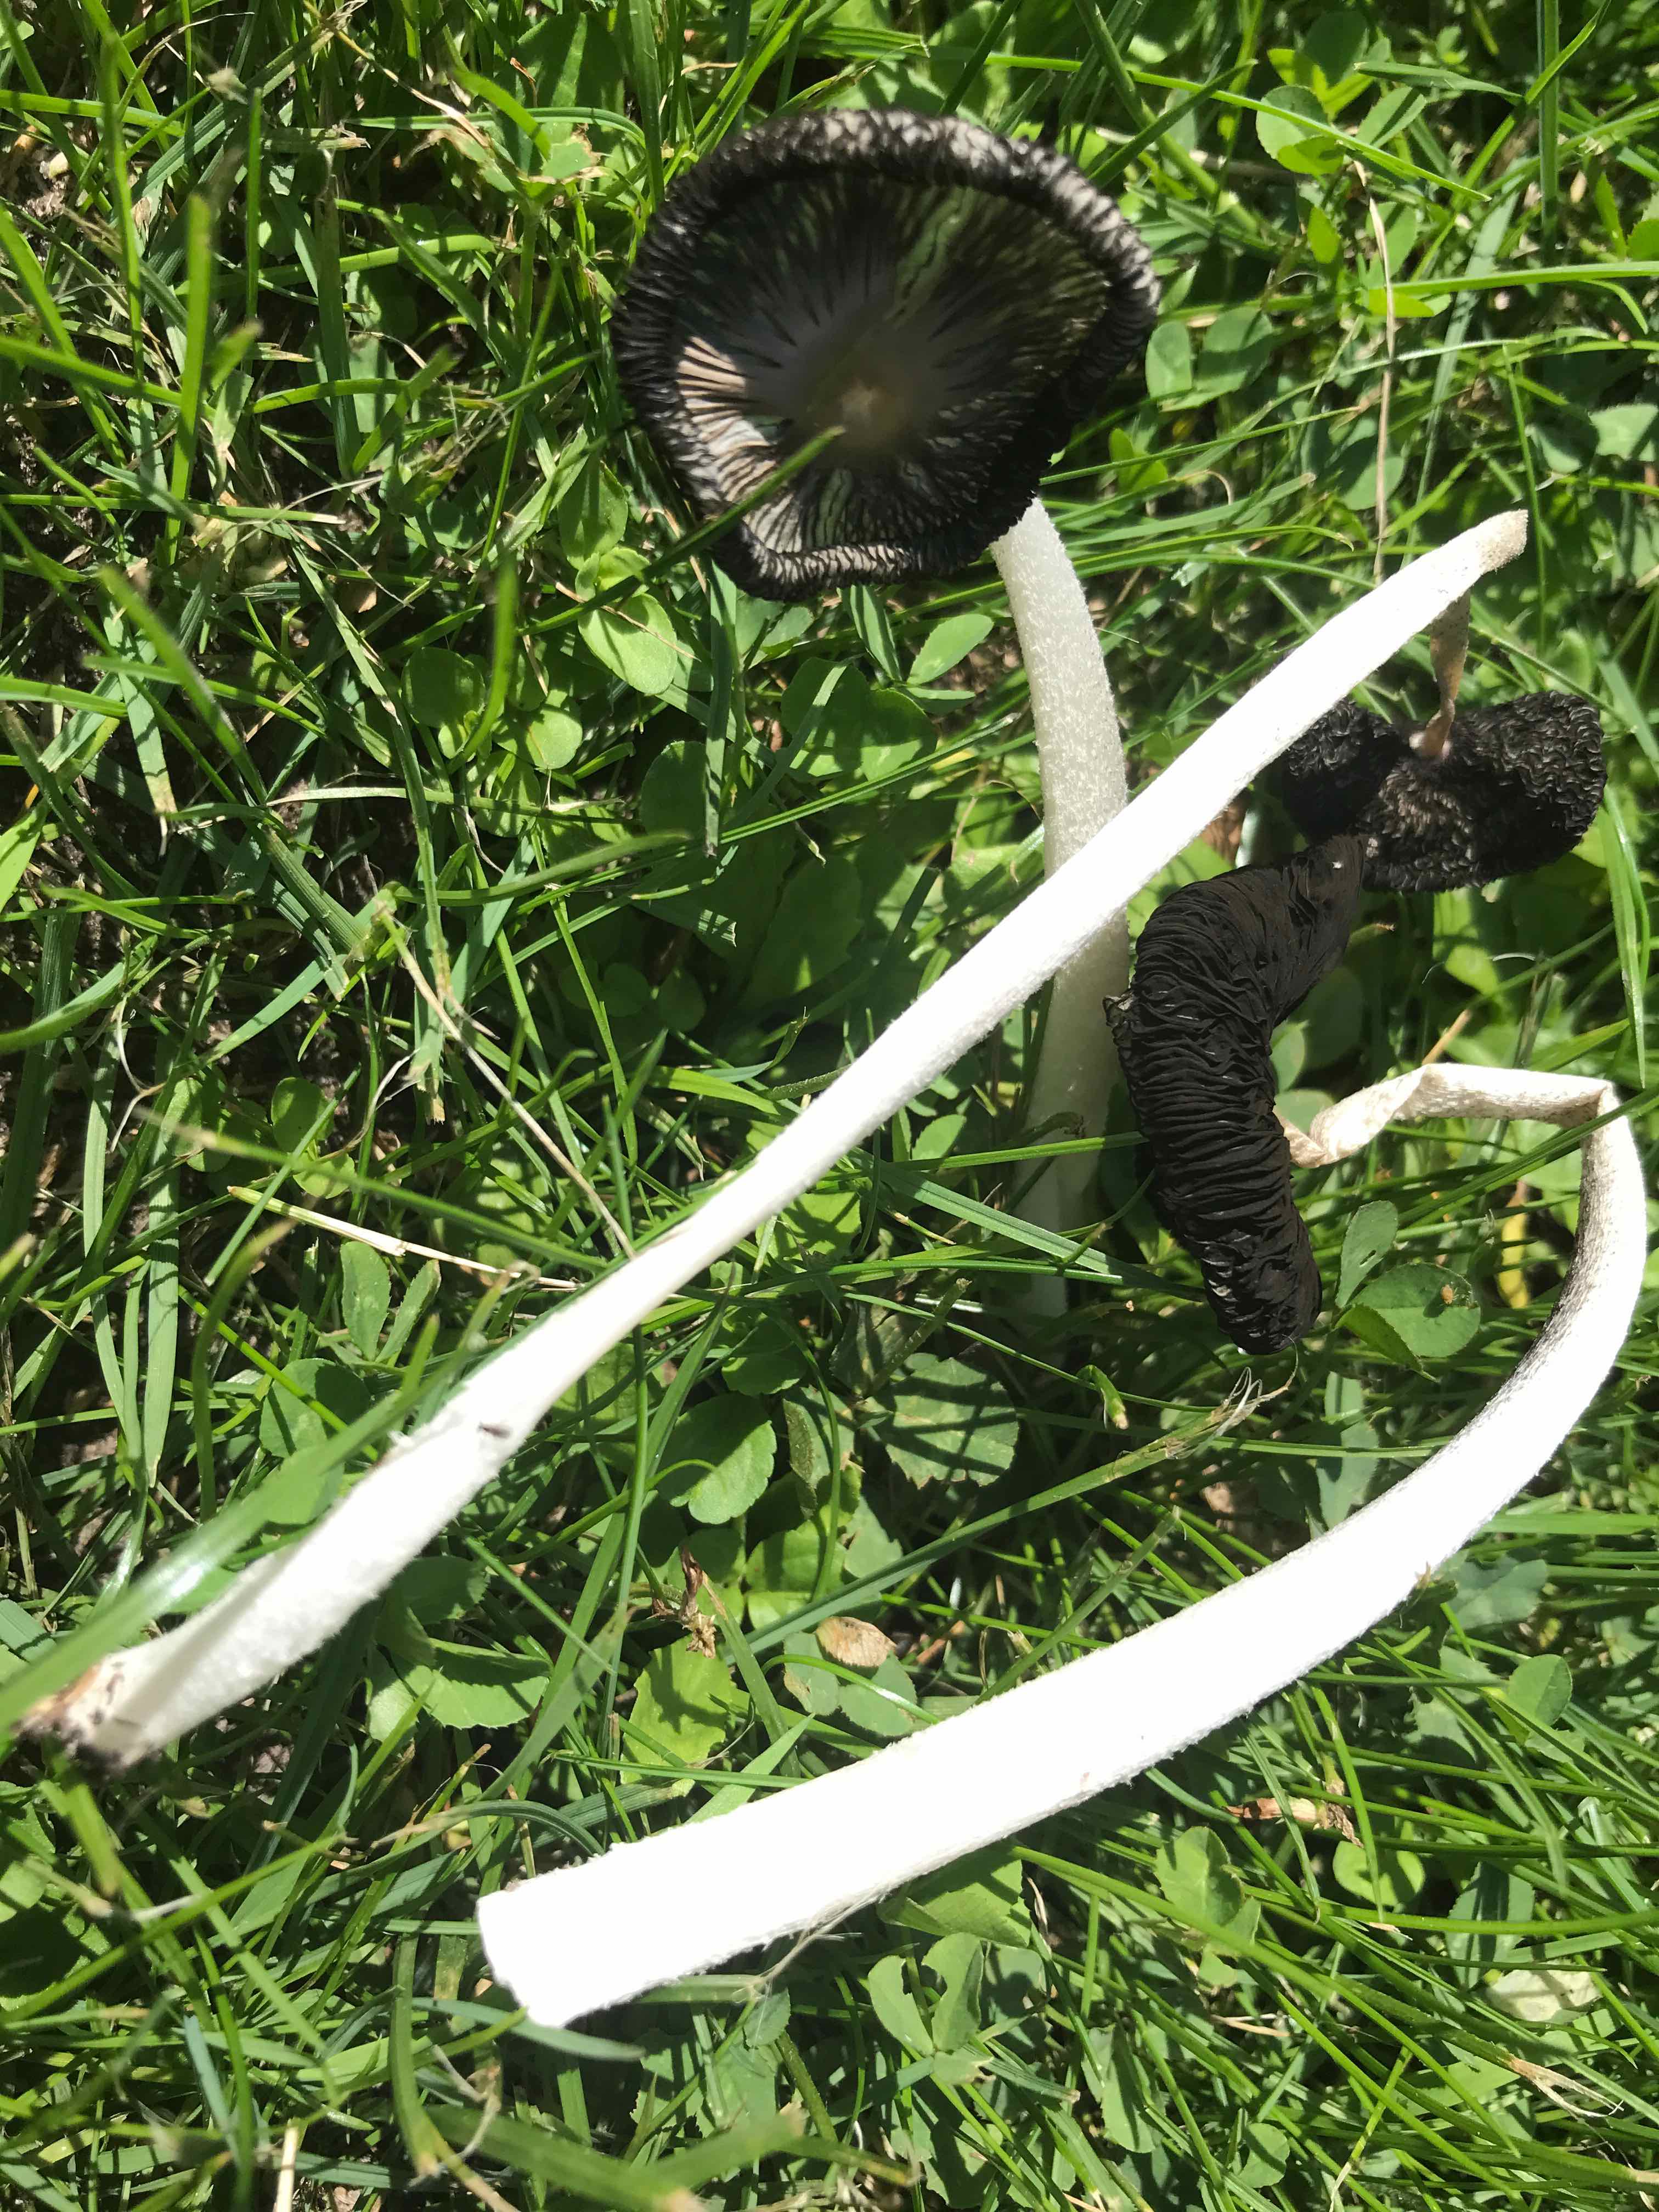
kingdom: Fungi
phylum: Basidiomycota
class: Agaricomycetes
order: Agaricales
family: Psathyrellaceae
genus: Coprinopsis
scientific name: Coprinopsis lagopus
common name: dunstokket blækhat
